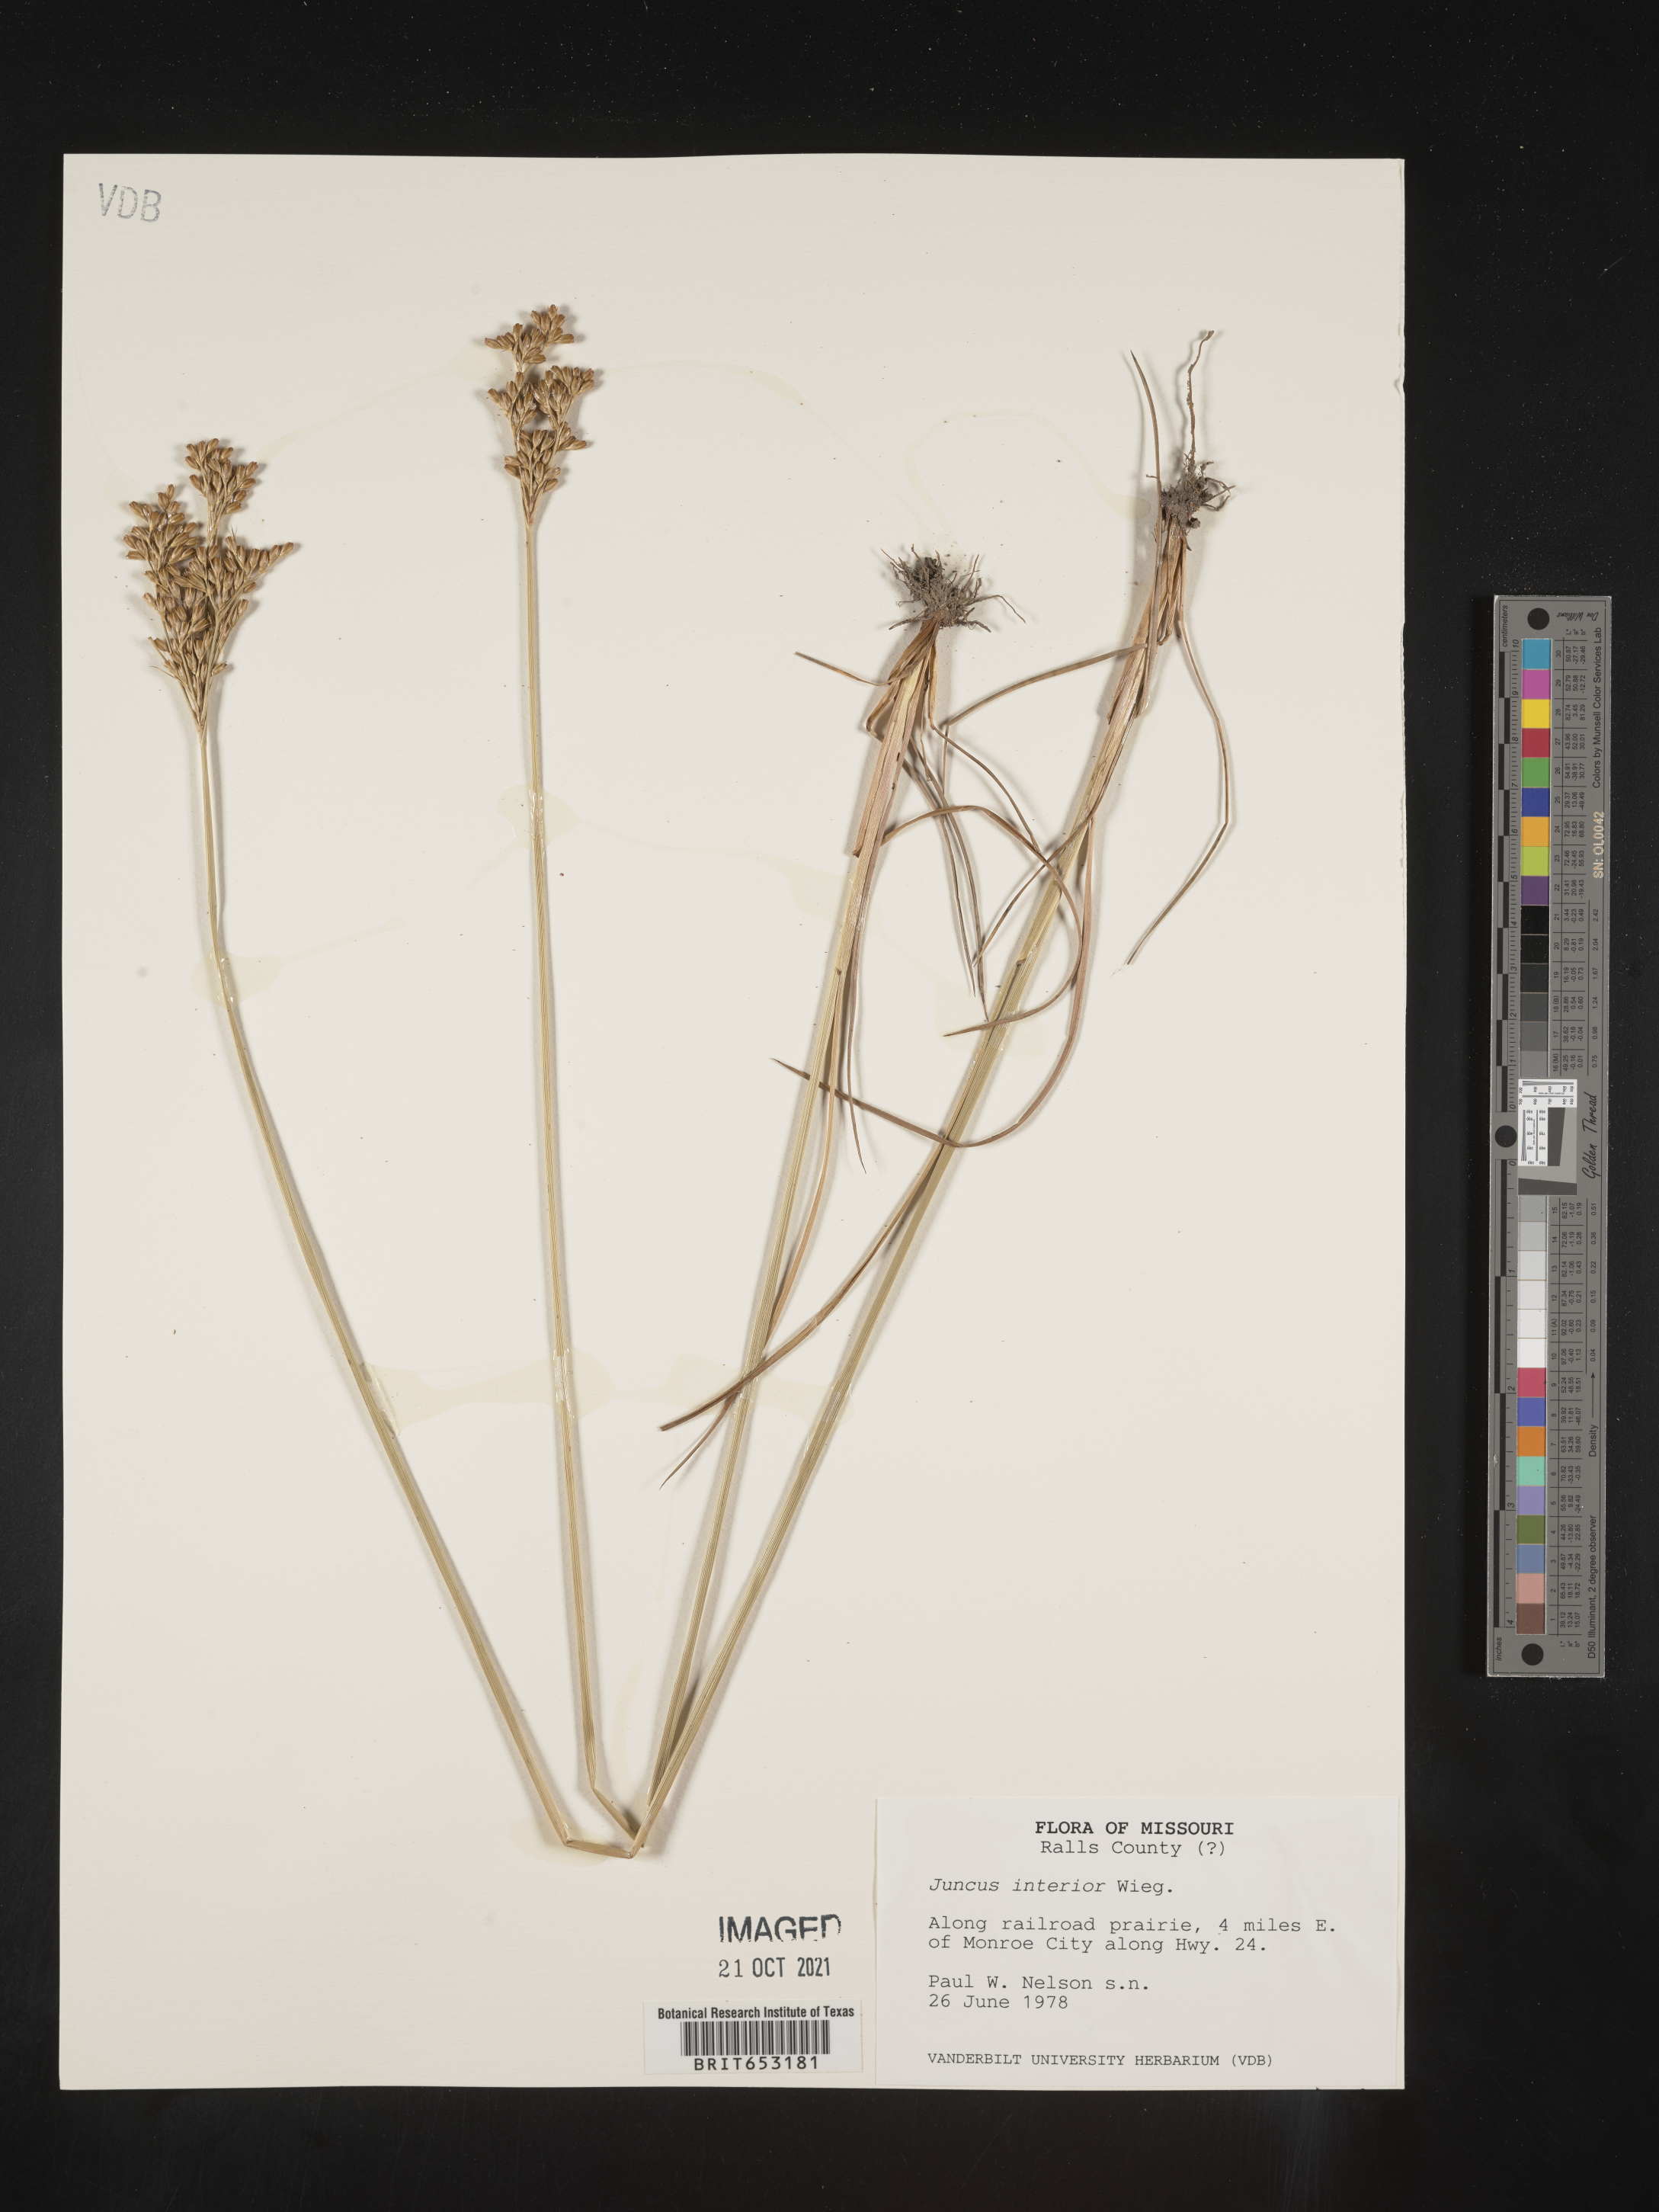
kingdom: Plantae
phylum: Tracheophyta
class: Liliopsida
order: Poales
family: Juncaceae
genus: Juncus
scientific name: Juncus interior
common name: Interior rush
